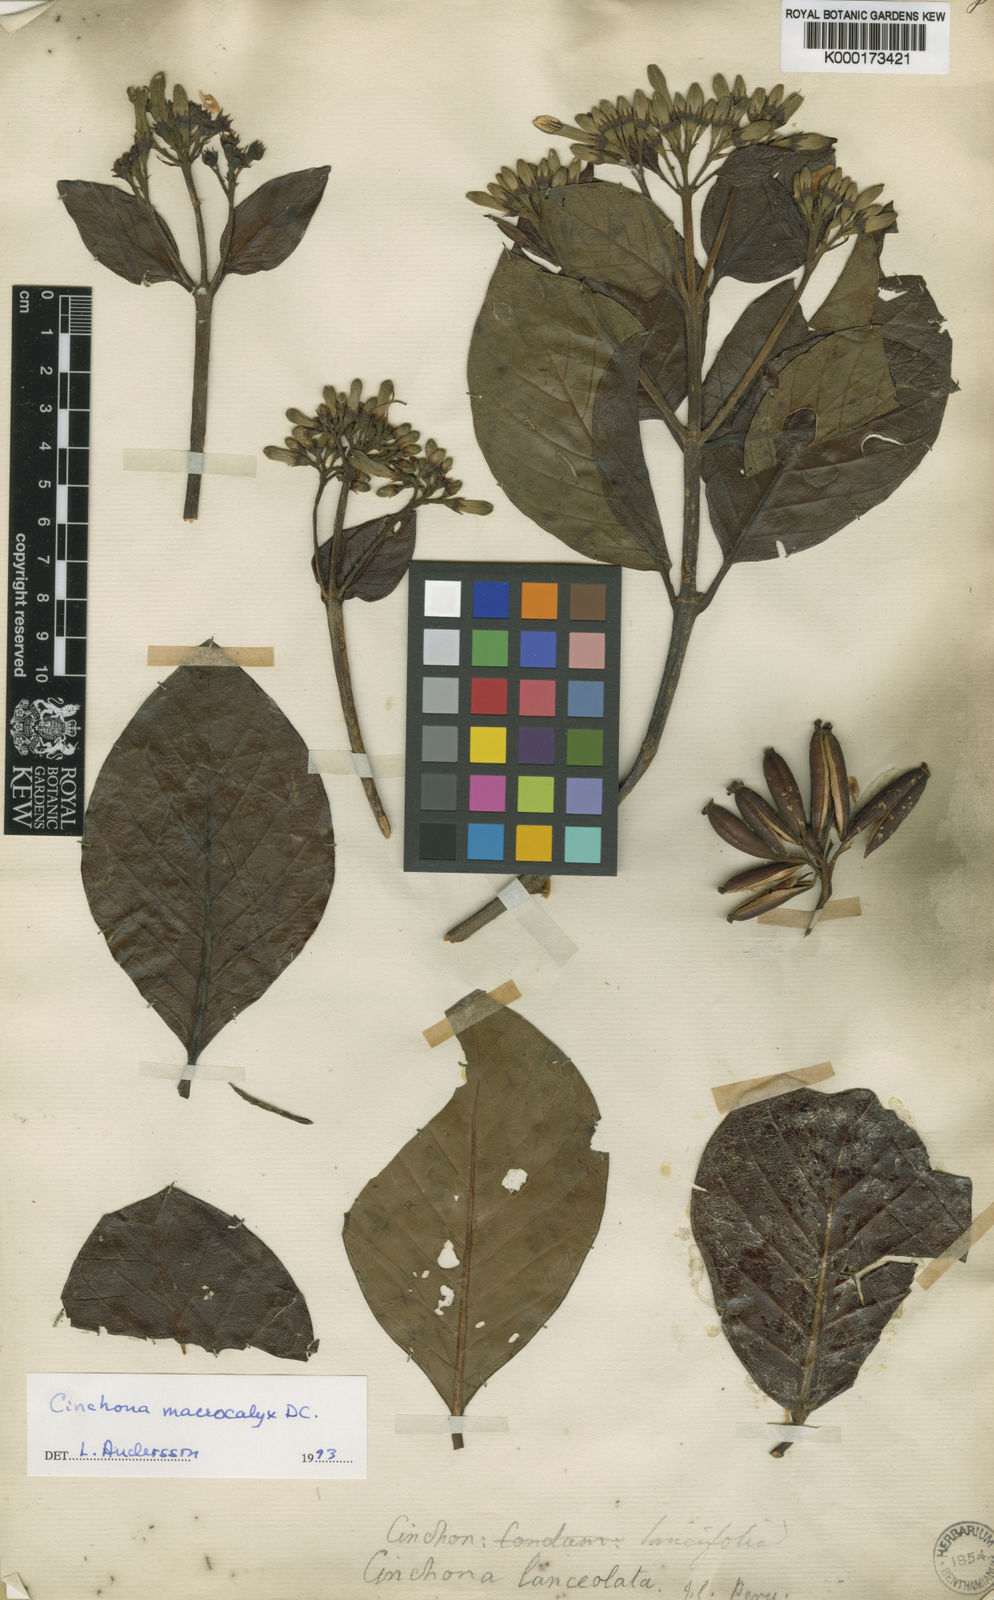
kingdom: Plantae
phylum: Tracheophyta
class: Magnoliopsida
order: Gentianales
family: Rubiaceae
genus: Cinchona
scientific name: Cinchona macrocalyx
